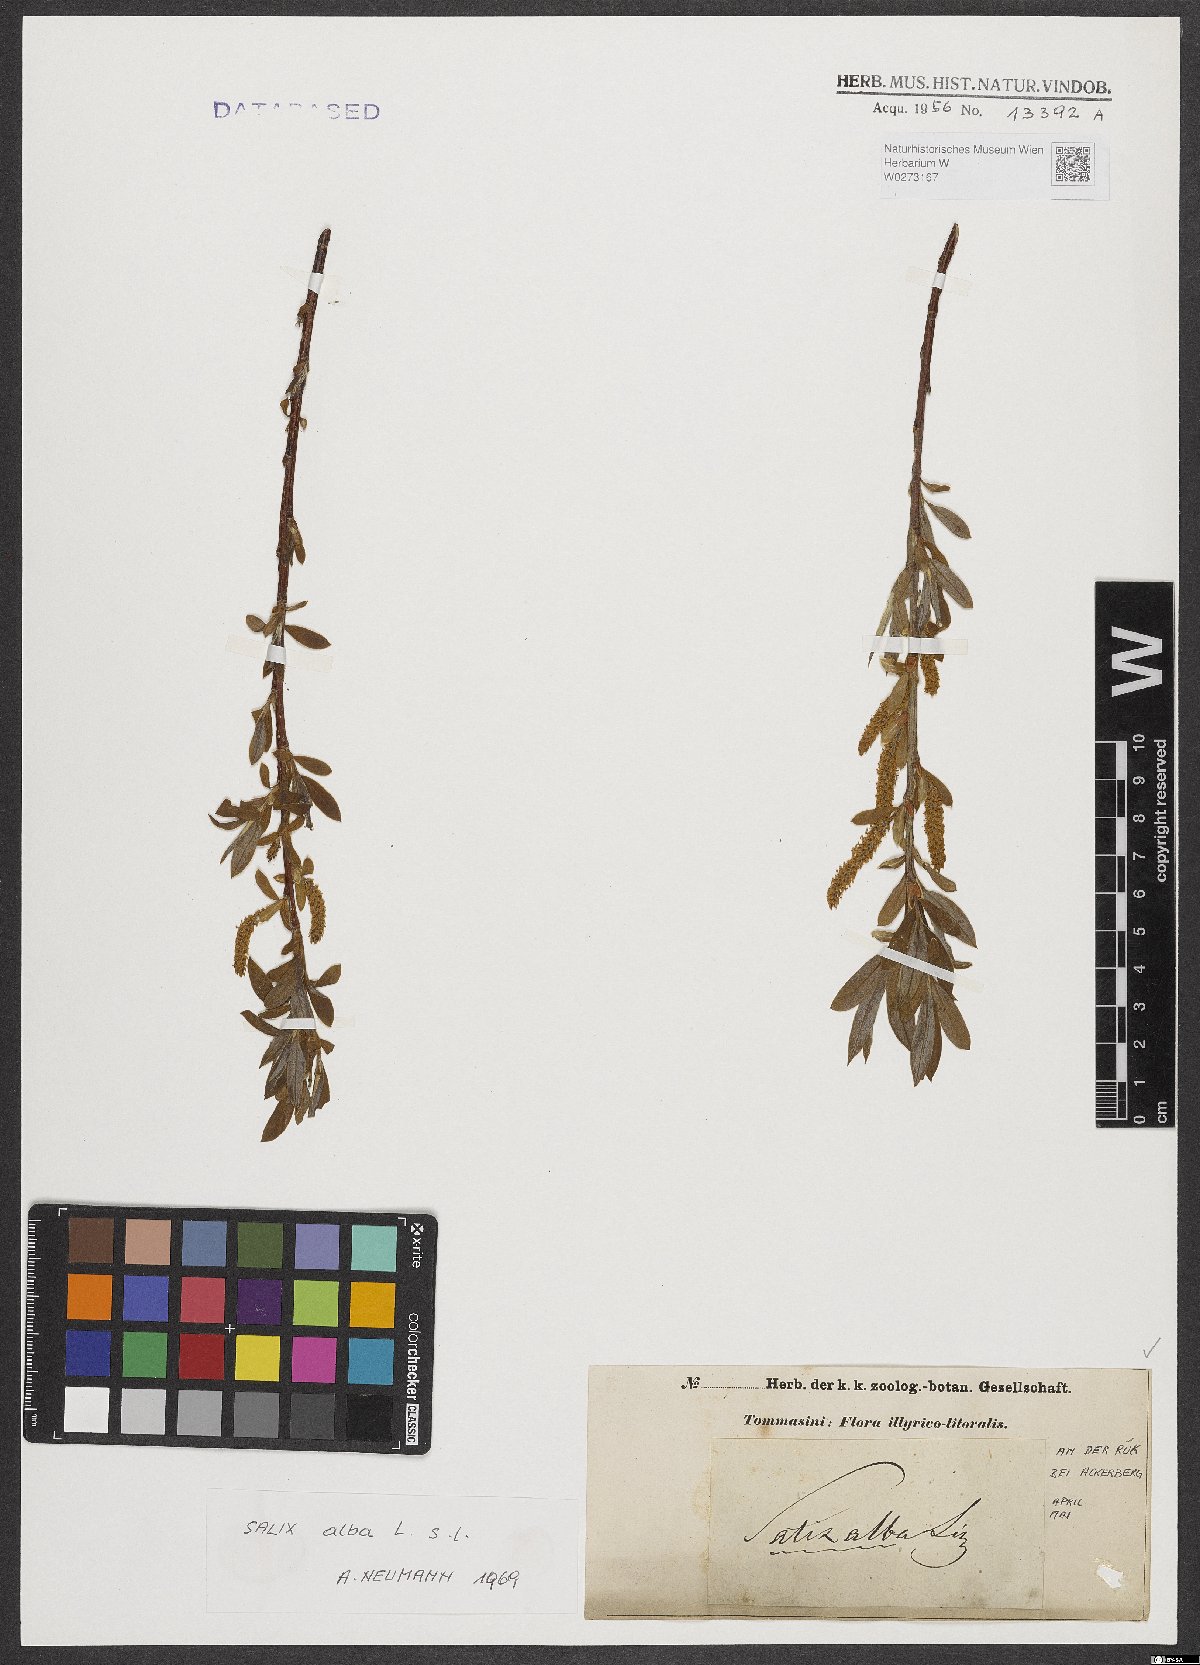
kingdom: Plantae
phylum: Tracheophyta
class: Magnoliopsida
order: Malpighiales
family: Salicaceae
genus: Salix
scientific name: Salix alba
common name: White willow
